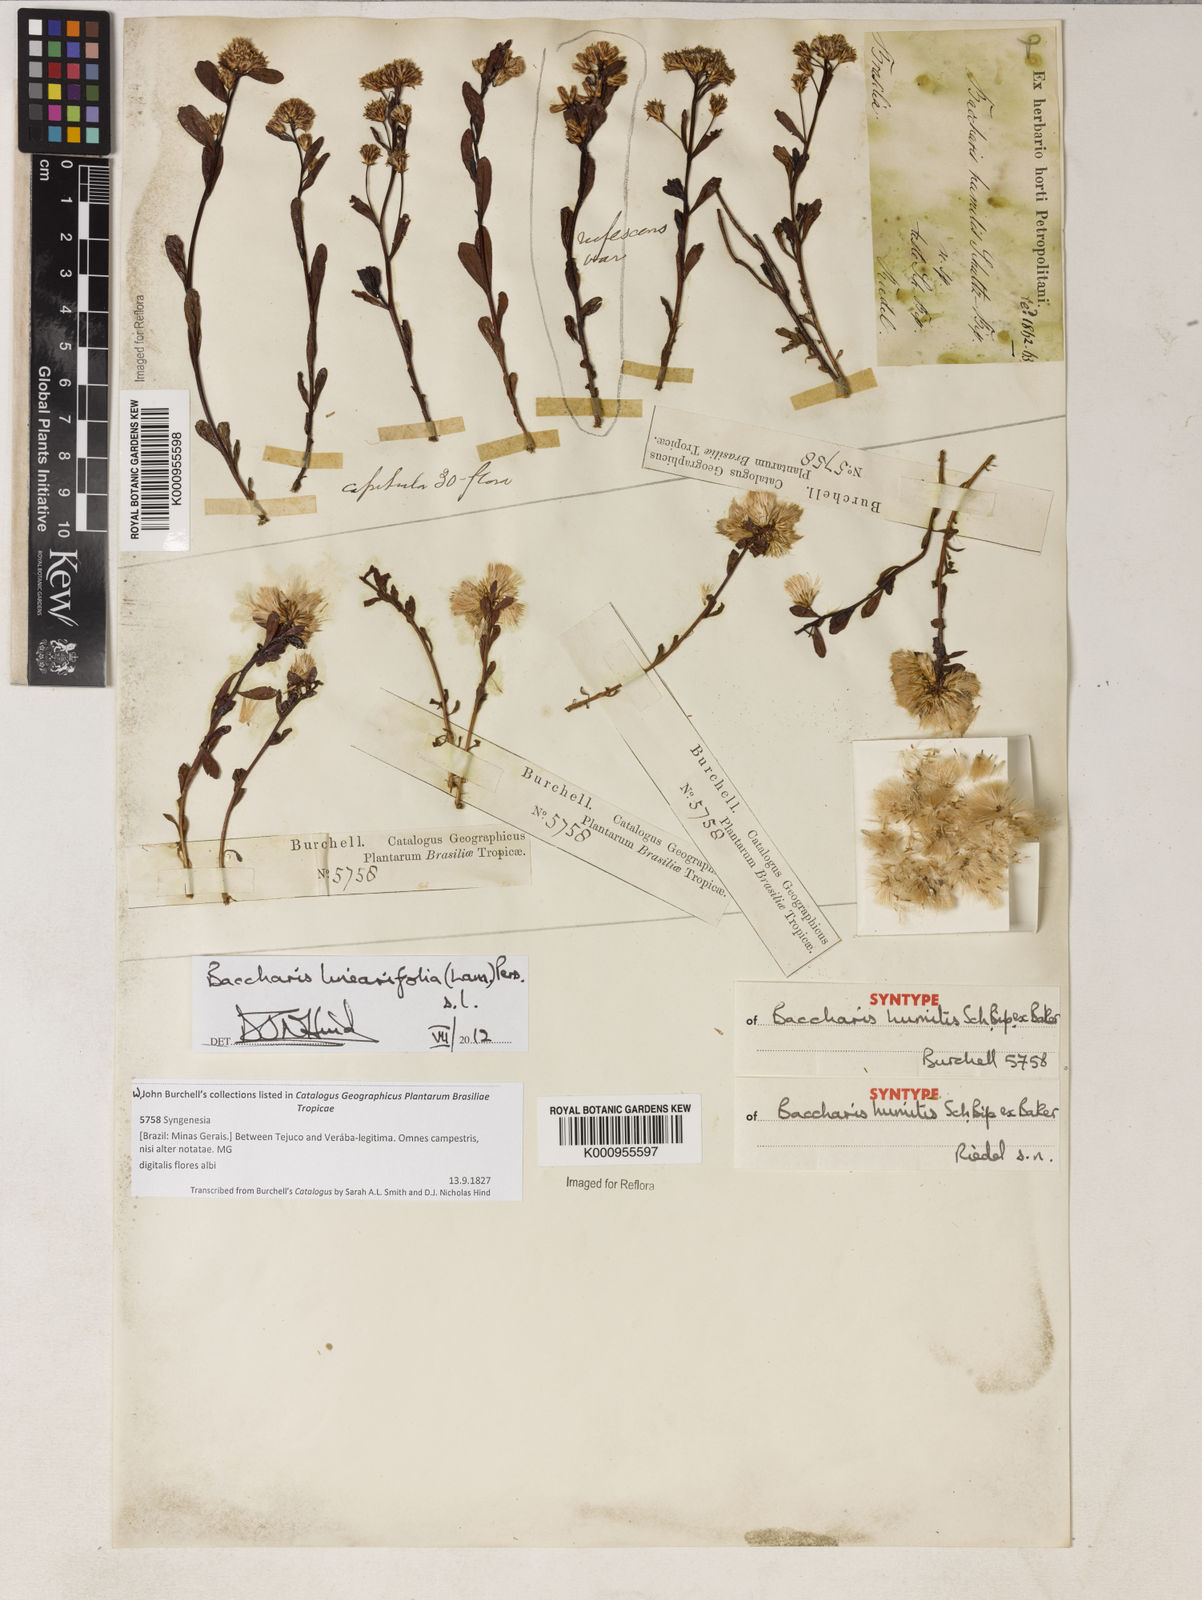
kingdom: Plantae
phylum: Tracheophyta
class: Magnoliopsida
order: Asterales
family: Asteraceae
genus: Baccharis
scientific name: Baccharis linearifolia
